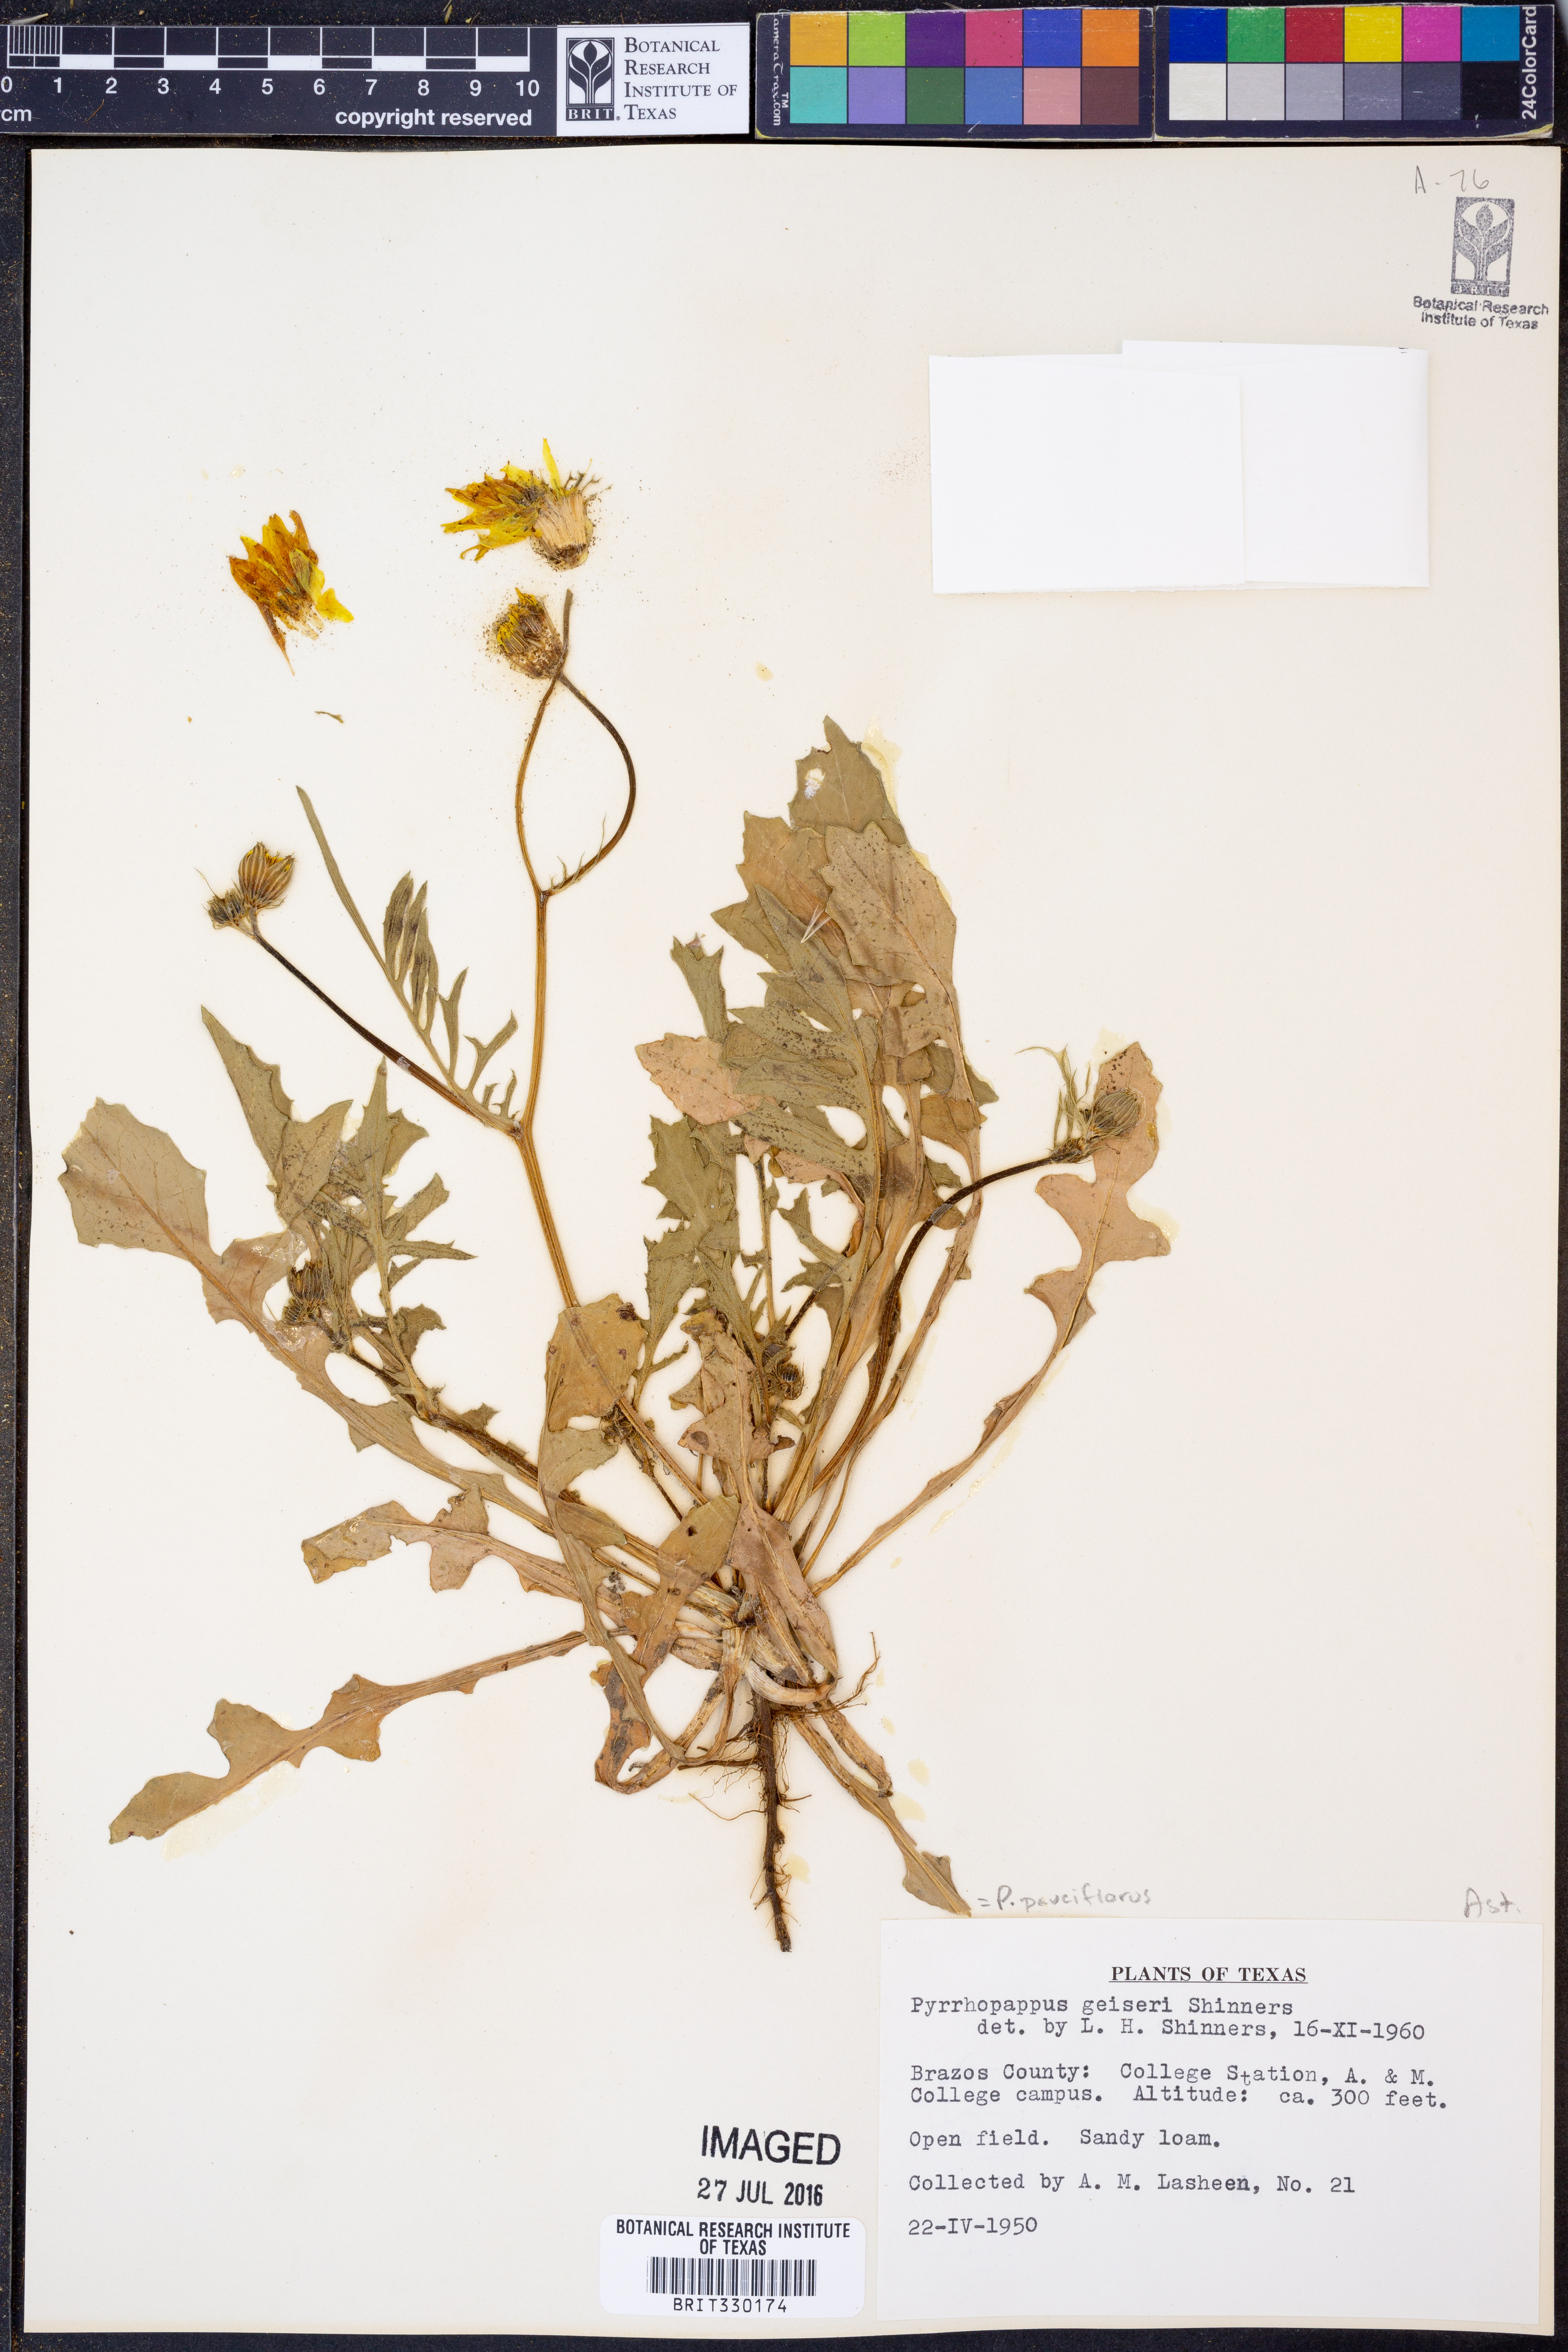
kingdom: Plantae
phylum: Tracheophyta
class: Magnoliopsida
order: Asterales
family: Asteraceae
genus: Pyrrhopappus
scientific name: Pyrrhopappus pauciflorus
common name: Texas false dandelion
